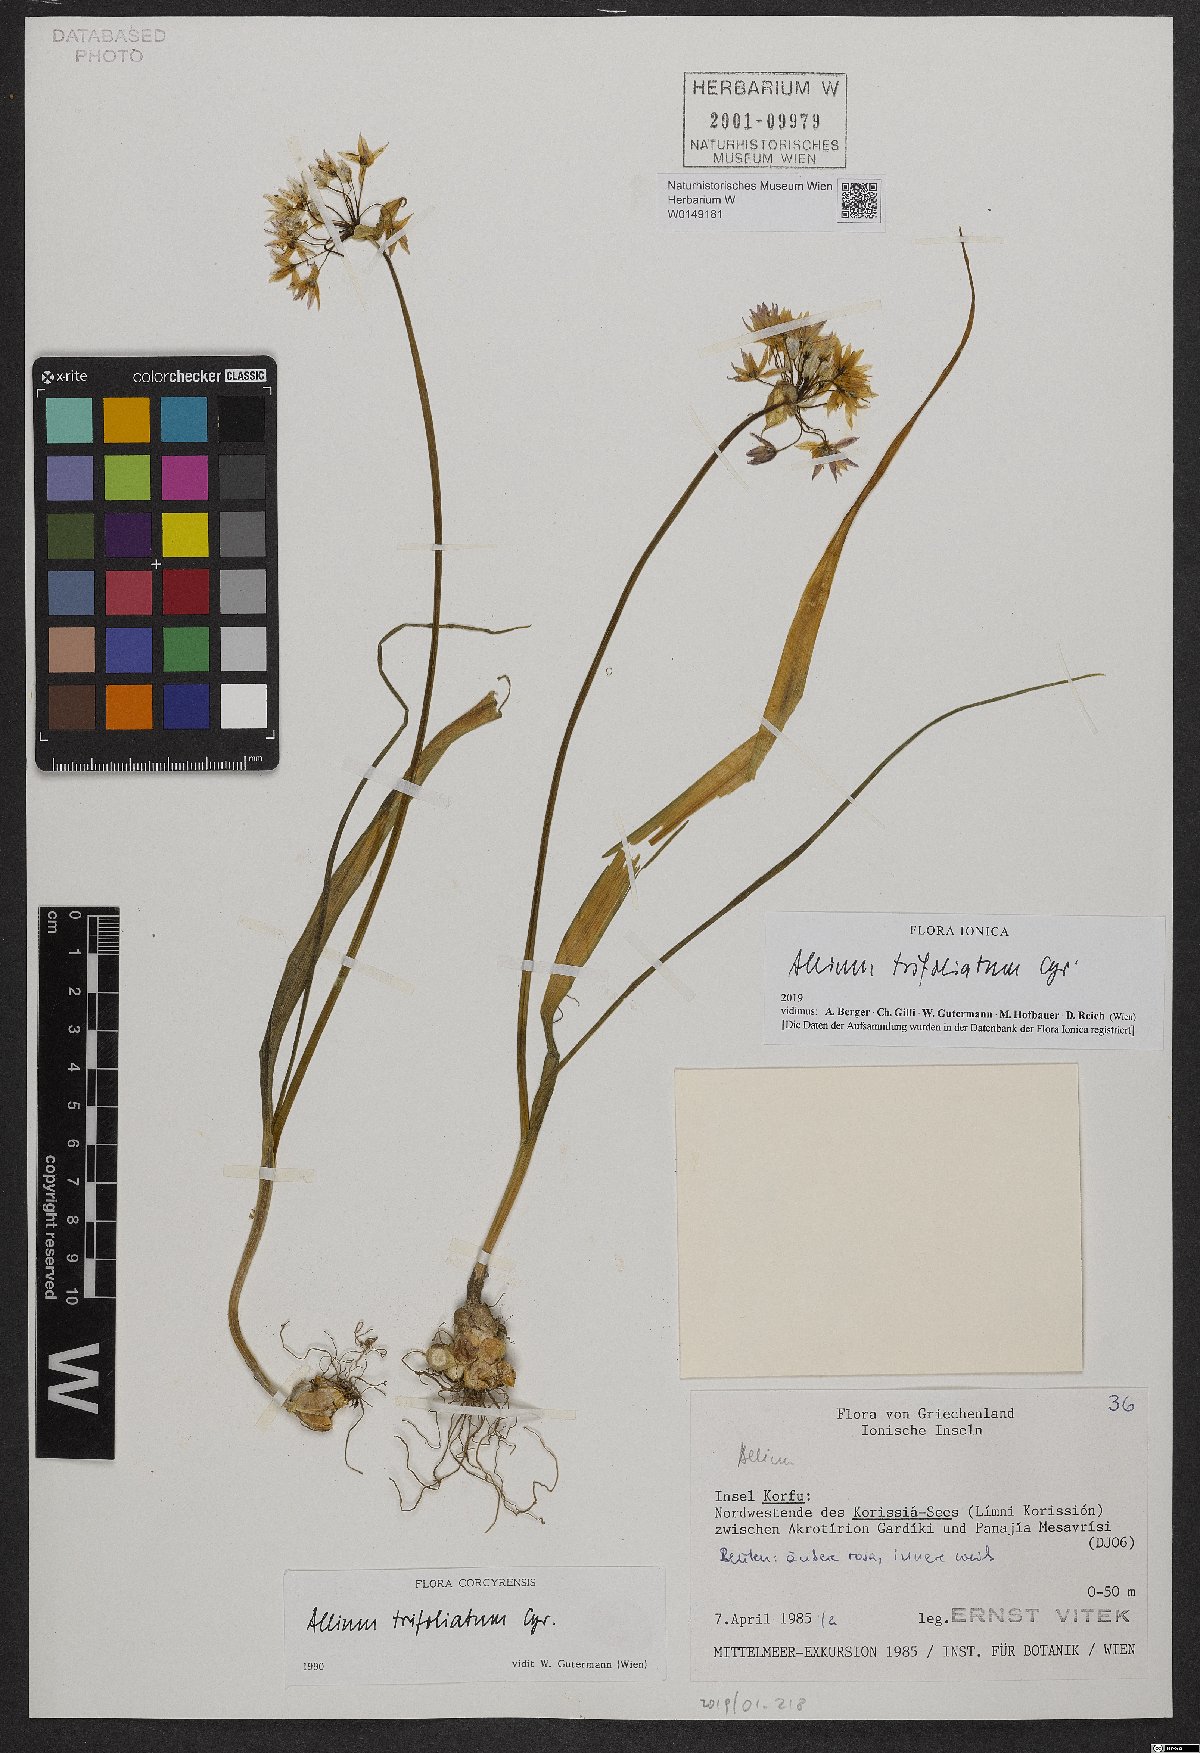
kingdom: Plantae
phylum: Tracheophyta
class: Liliopsida
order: Asparagales
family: Amaryllidaceae
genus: Allium
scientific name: Allium trifoliatum
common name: Pink garlic
